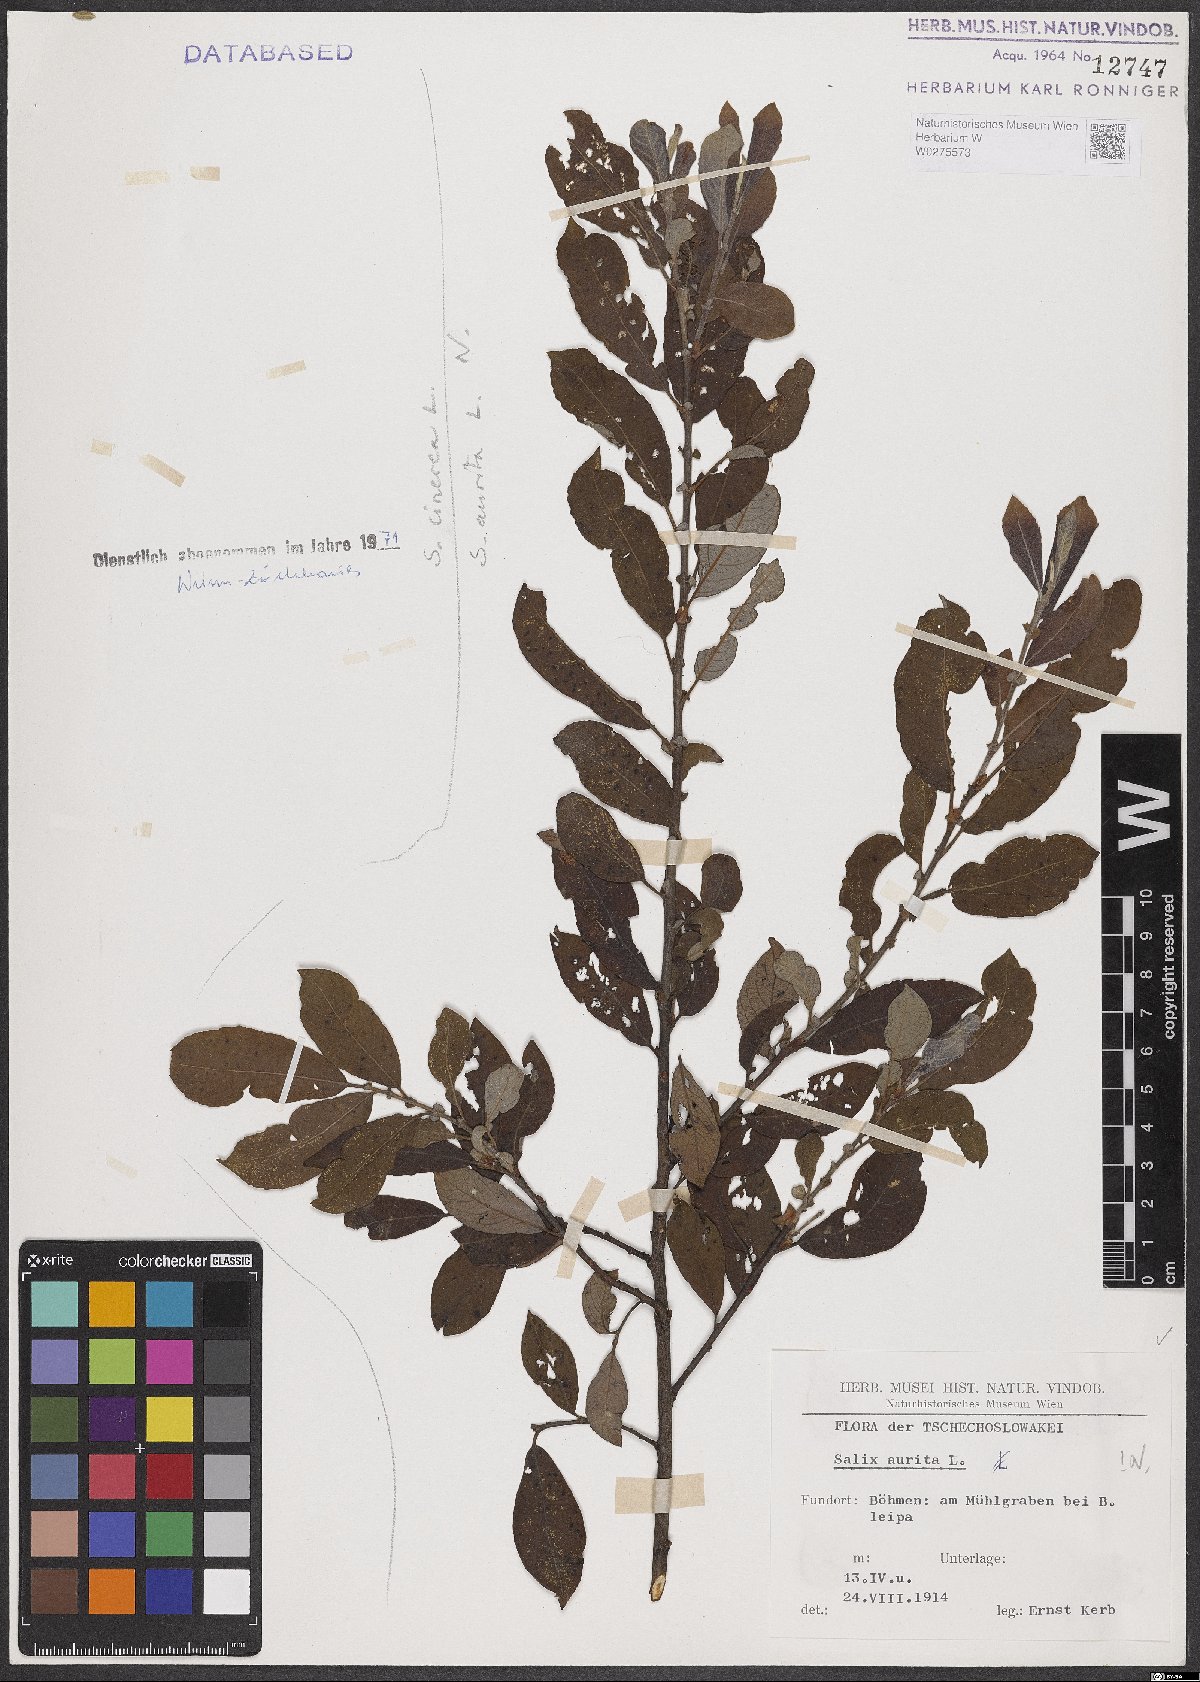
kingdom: Plantae
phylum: Tracheophyta
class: Magnoliopsida
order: Malpighiales
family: Salicaceae
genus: Salix
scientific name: Salix aurita
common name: Eared willow
